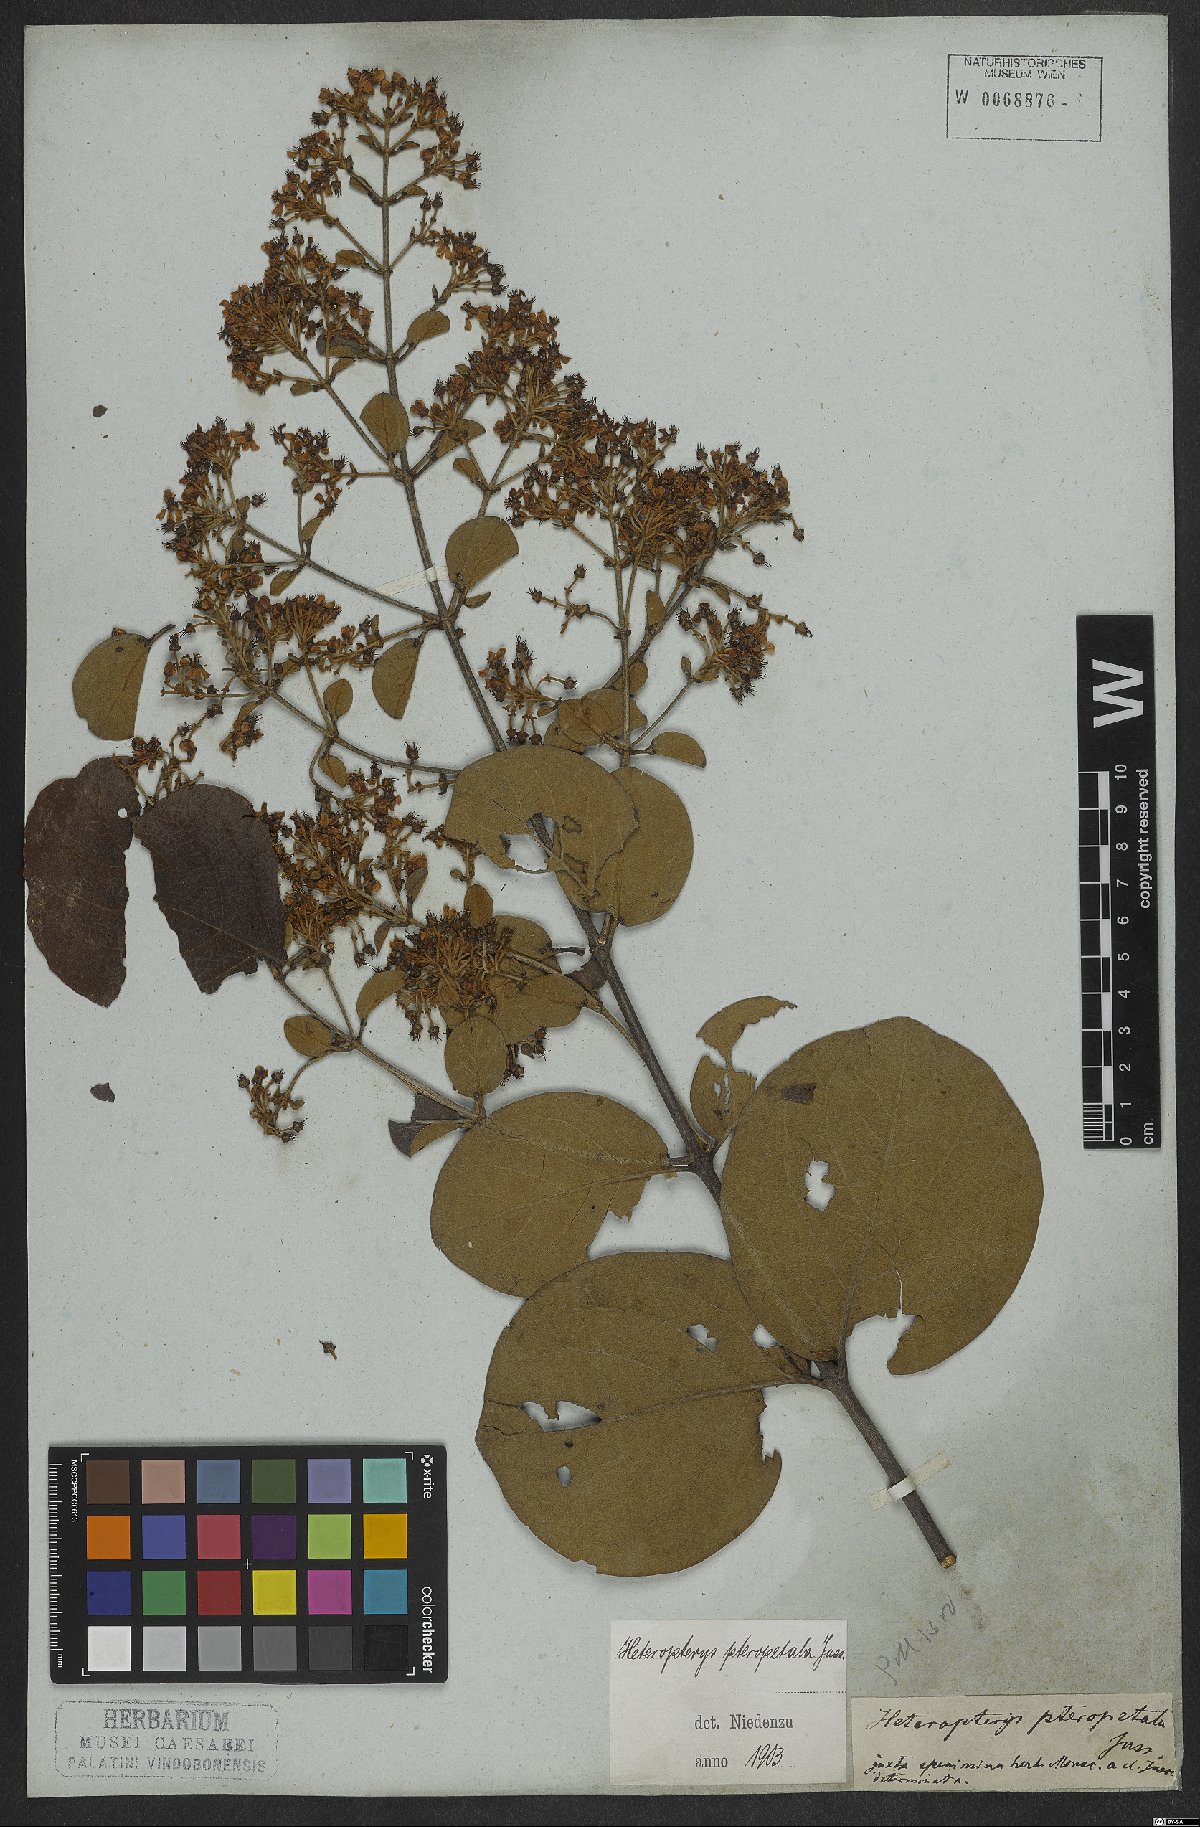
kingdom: Plantae
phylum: Tracheophyta
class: Magnoliopsida
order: Malpighiales
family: Malpighiaceae
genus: Heteropterys
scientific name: Heteropterys pteropetala
